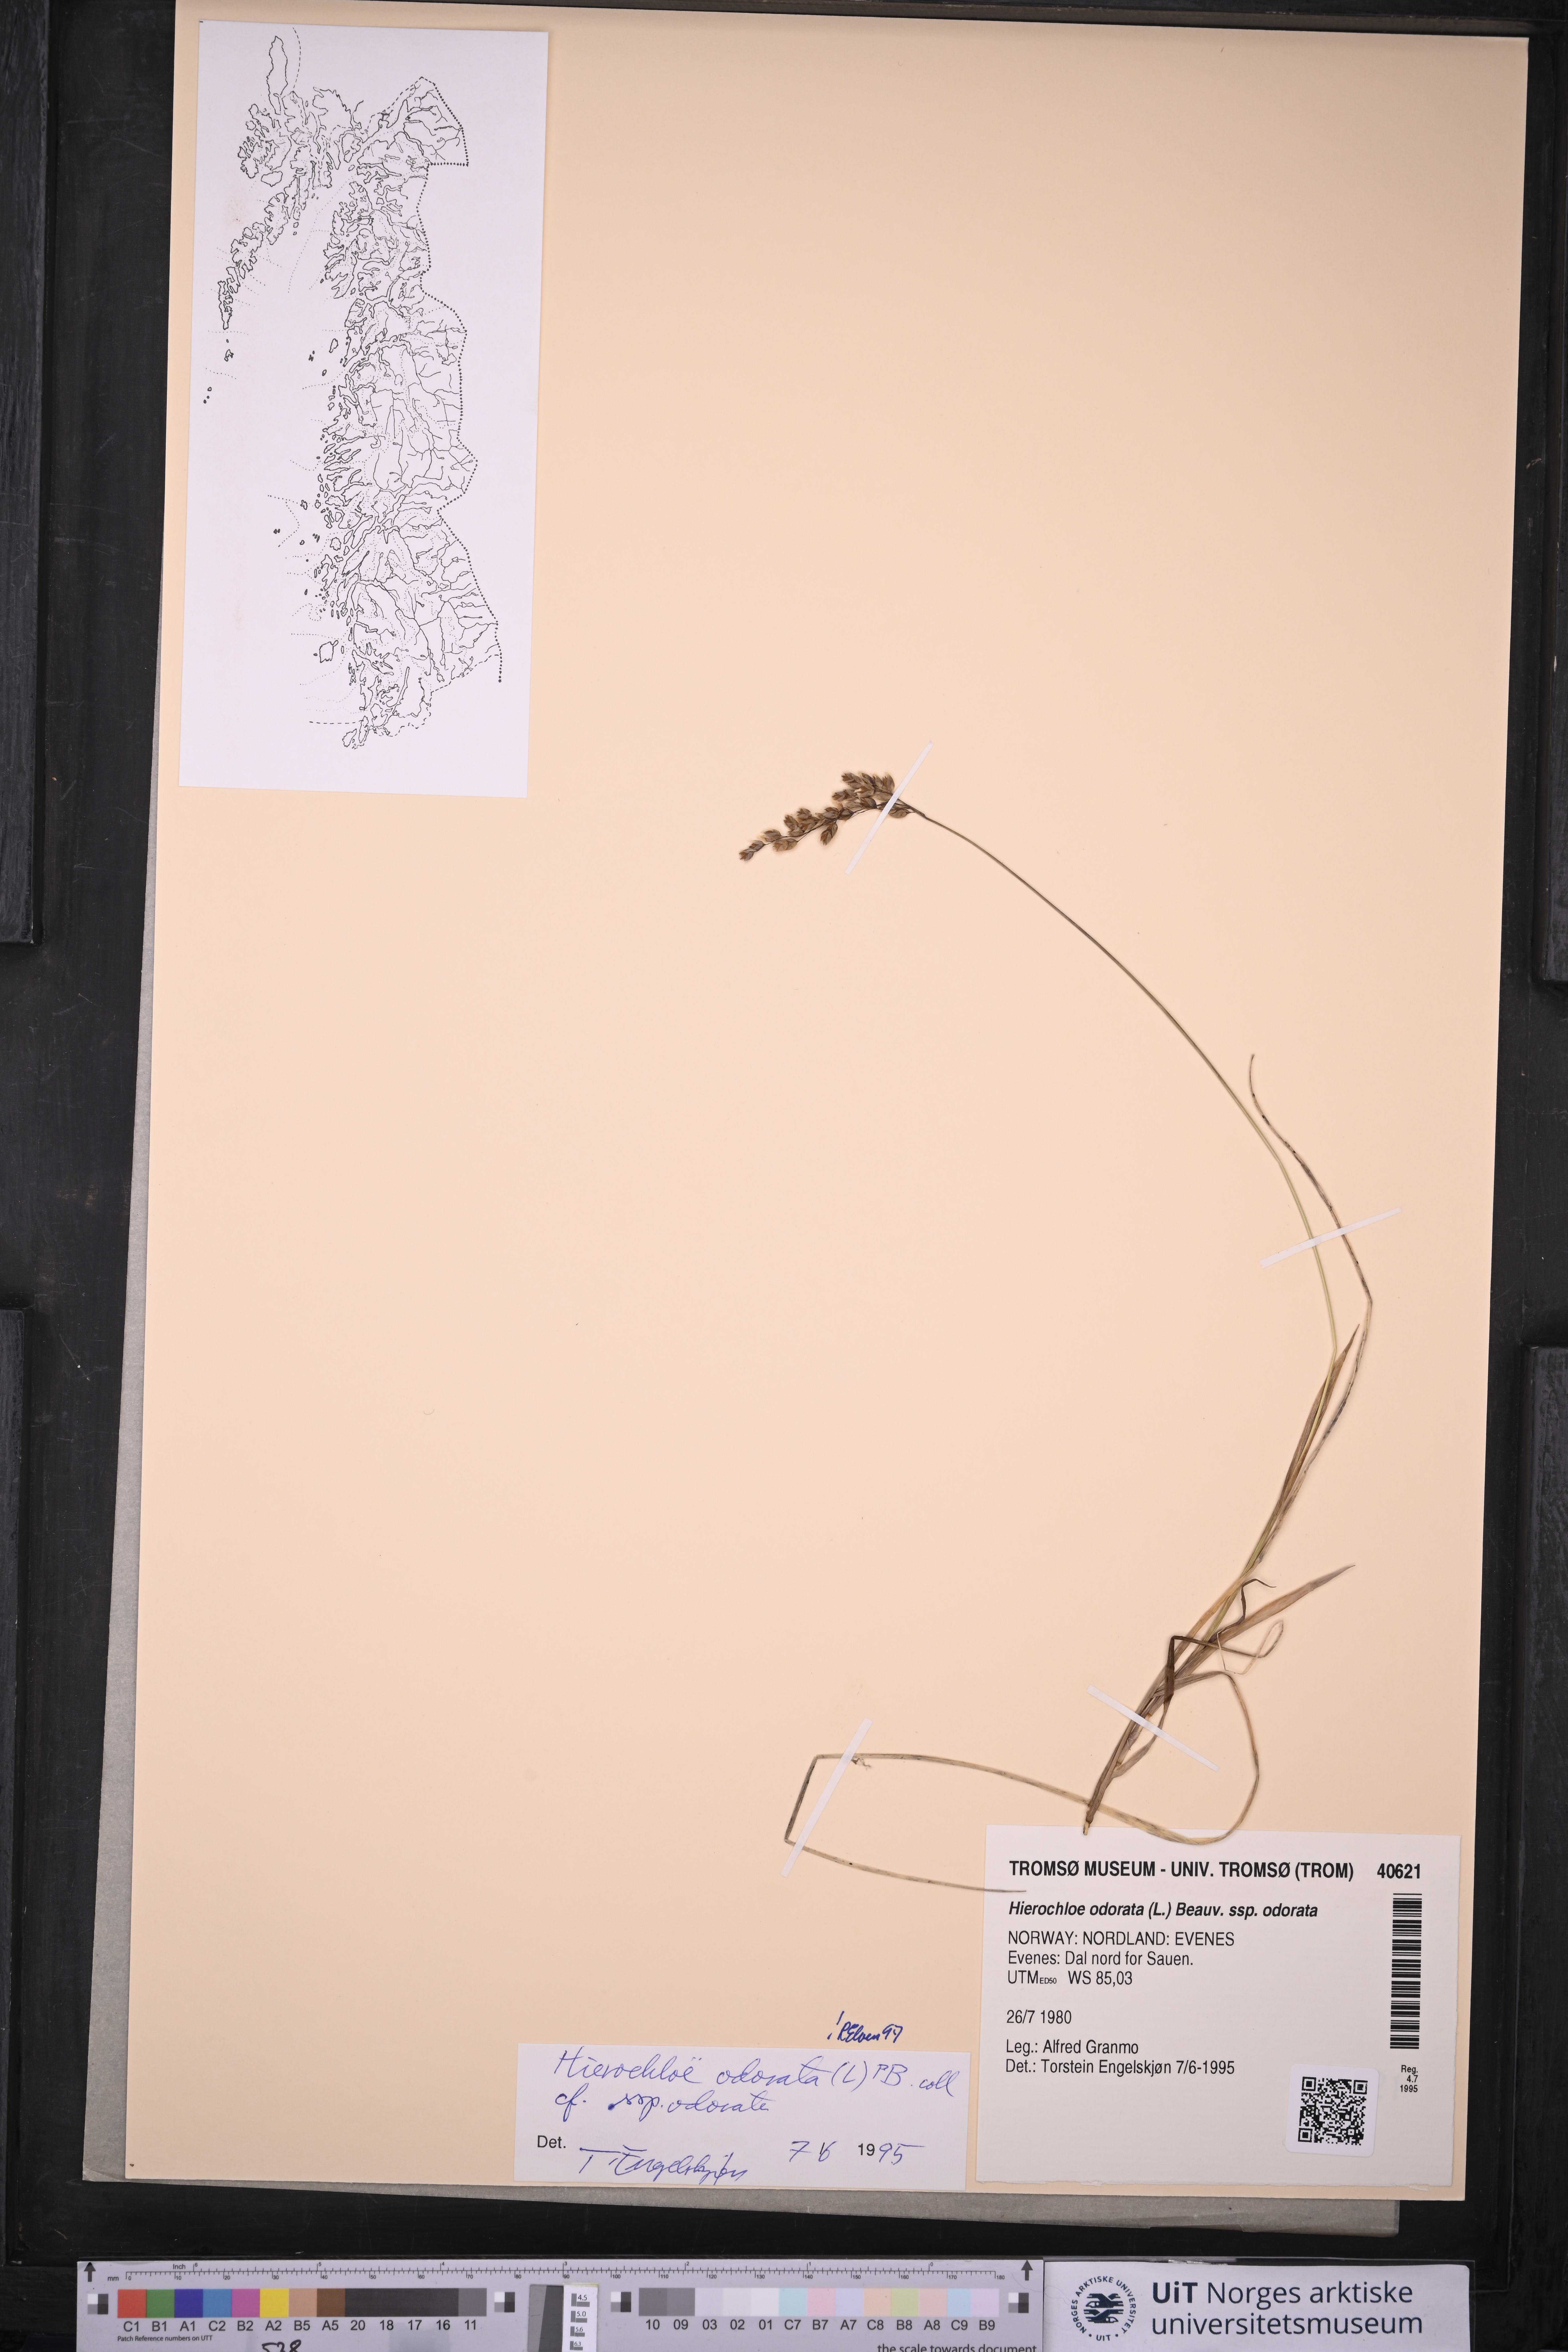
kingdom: Plantae
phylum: Tracheophyta
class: Liliopsida
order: Poales
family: Poaceae
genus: Anthoxanthum
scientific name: Anthoxanthum nitens
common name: Holy grass
